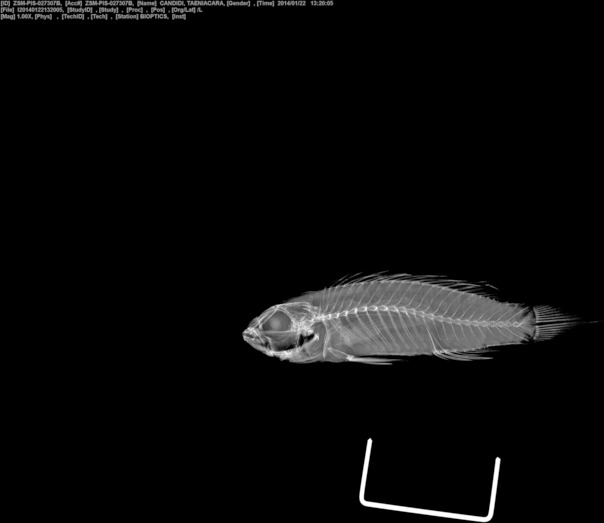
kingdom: Animalia
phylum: Chordata
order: Perciformes
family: Cichlidae
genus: Taeniacara
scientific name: Taeniacara candidi
